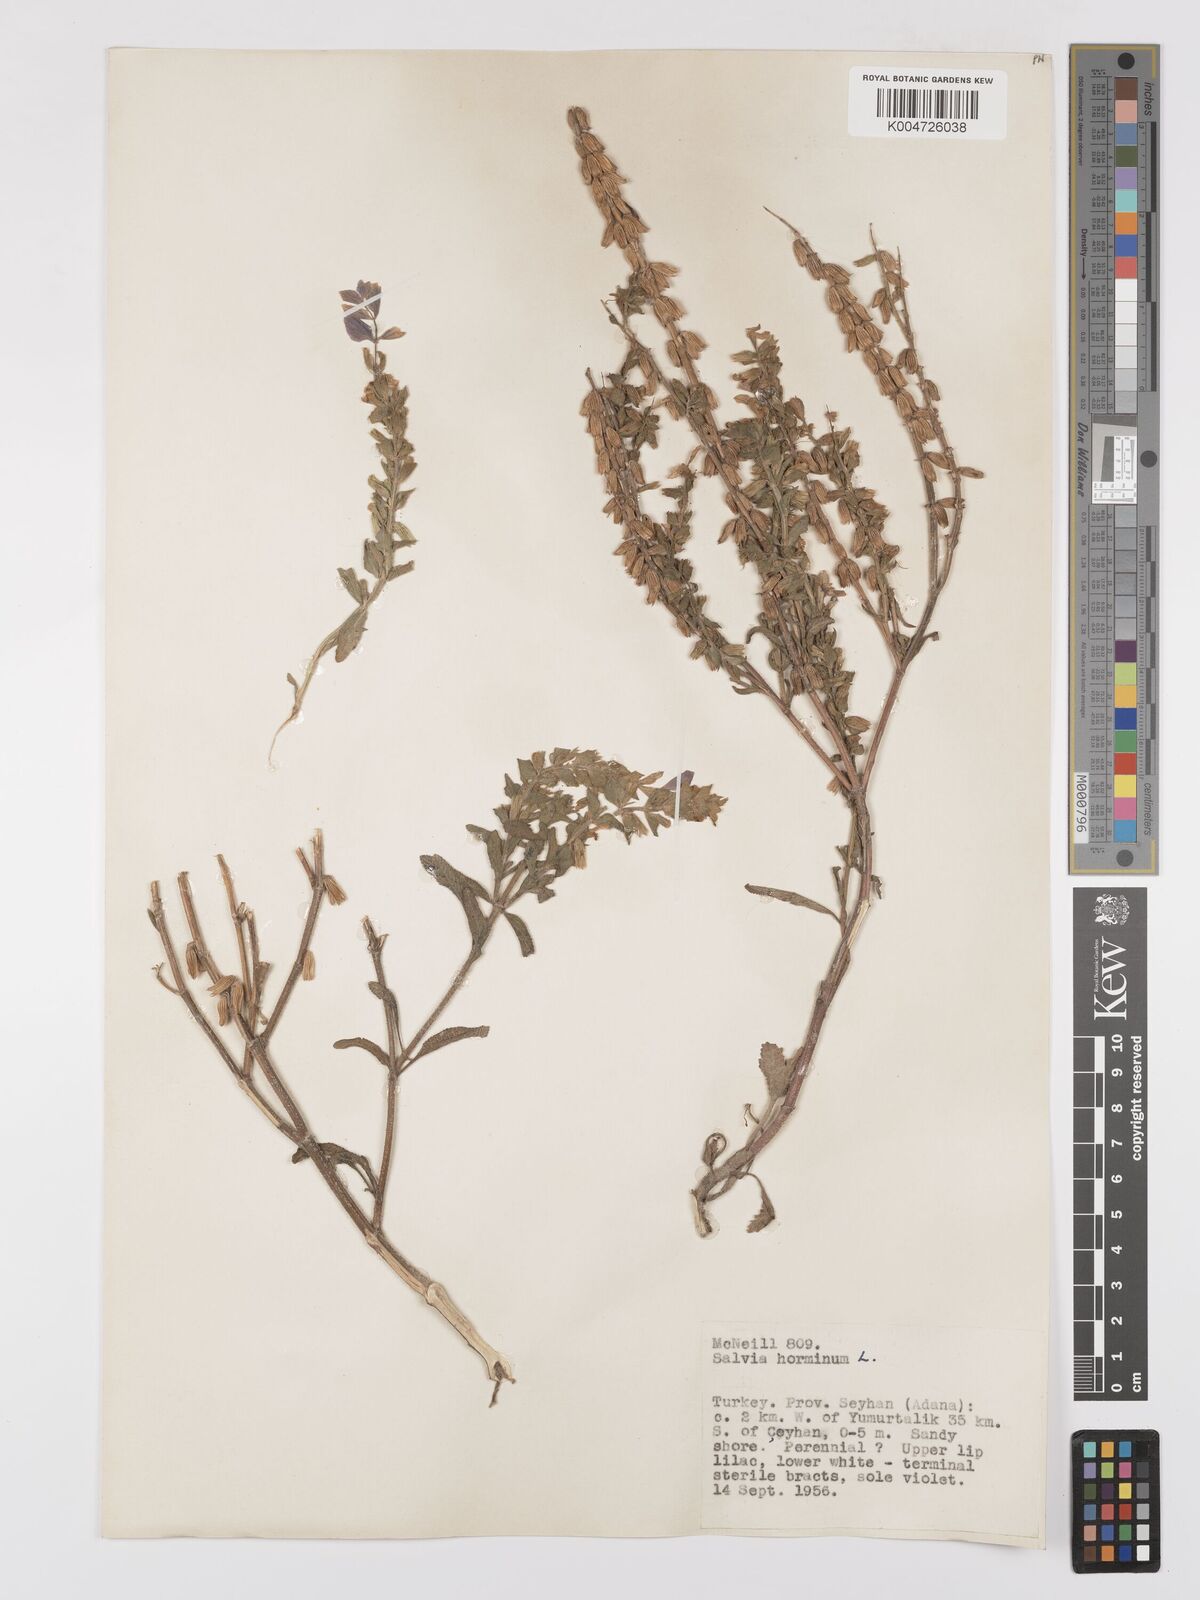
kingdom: Plantae
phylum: Tracheophyta
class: Magnoliopsida
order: Lamiales
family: Lamiaceae
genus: Salvia
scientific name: Salvia viridis
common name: Annual clary
